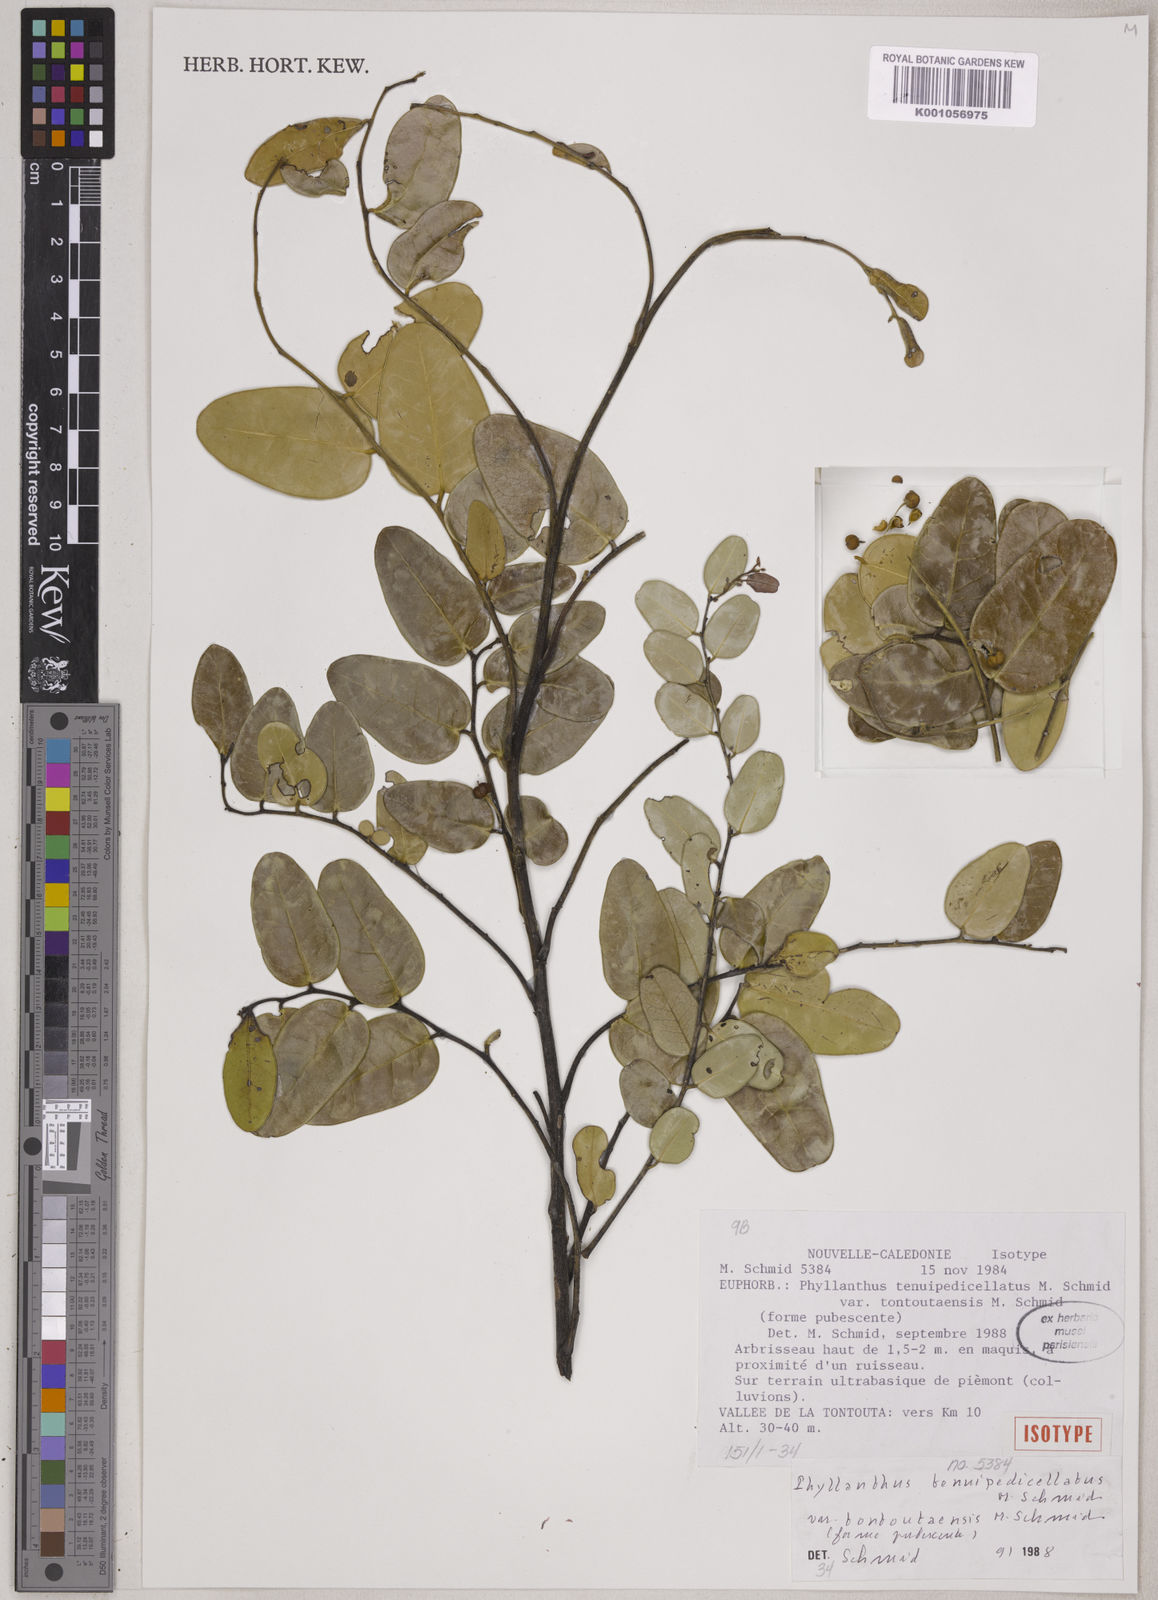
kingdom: Plantae
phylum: Tracheophyta
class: Magnoliopsida
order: Malpighiales
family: Phyllanthaceae
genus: Phyllanthus
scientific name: Phyllanthus tenuipedicellatus
